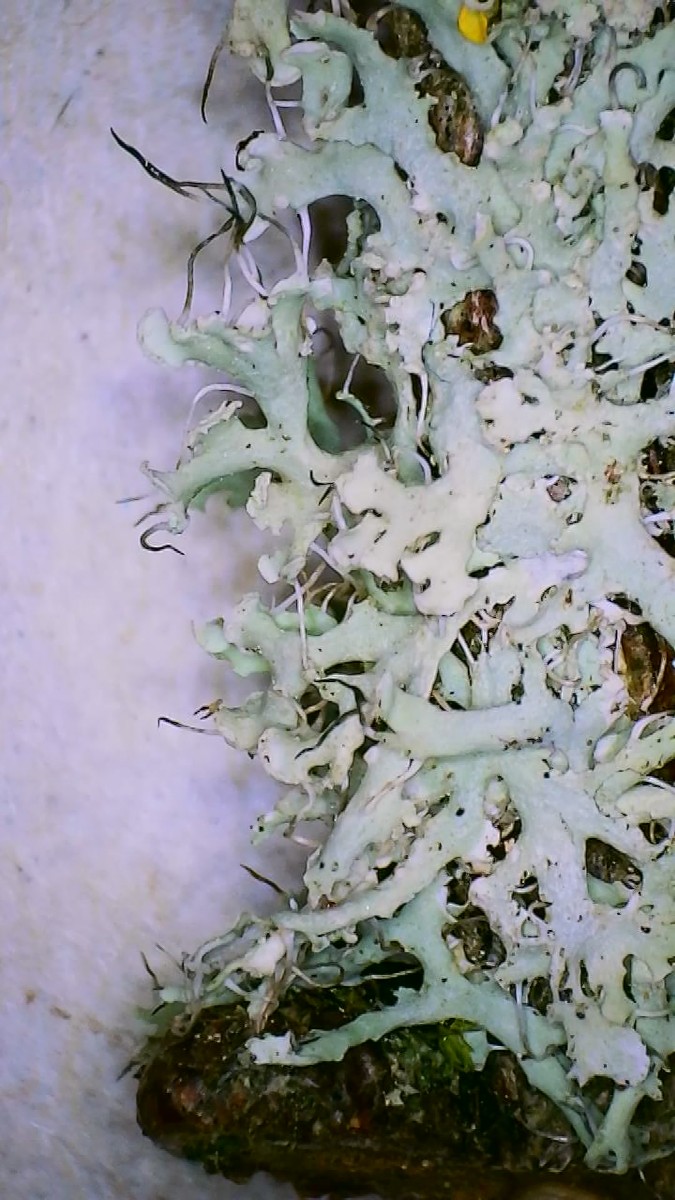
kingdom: Fungi
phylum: Ascomycota
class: Lecanoromycetes
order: Caliciales
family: Physciaceae
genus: Physcia
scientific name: Physcia tenella
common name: spæd rosetlav
